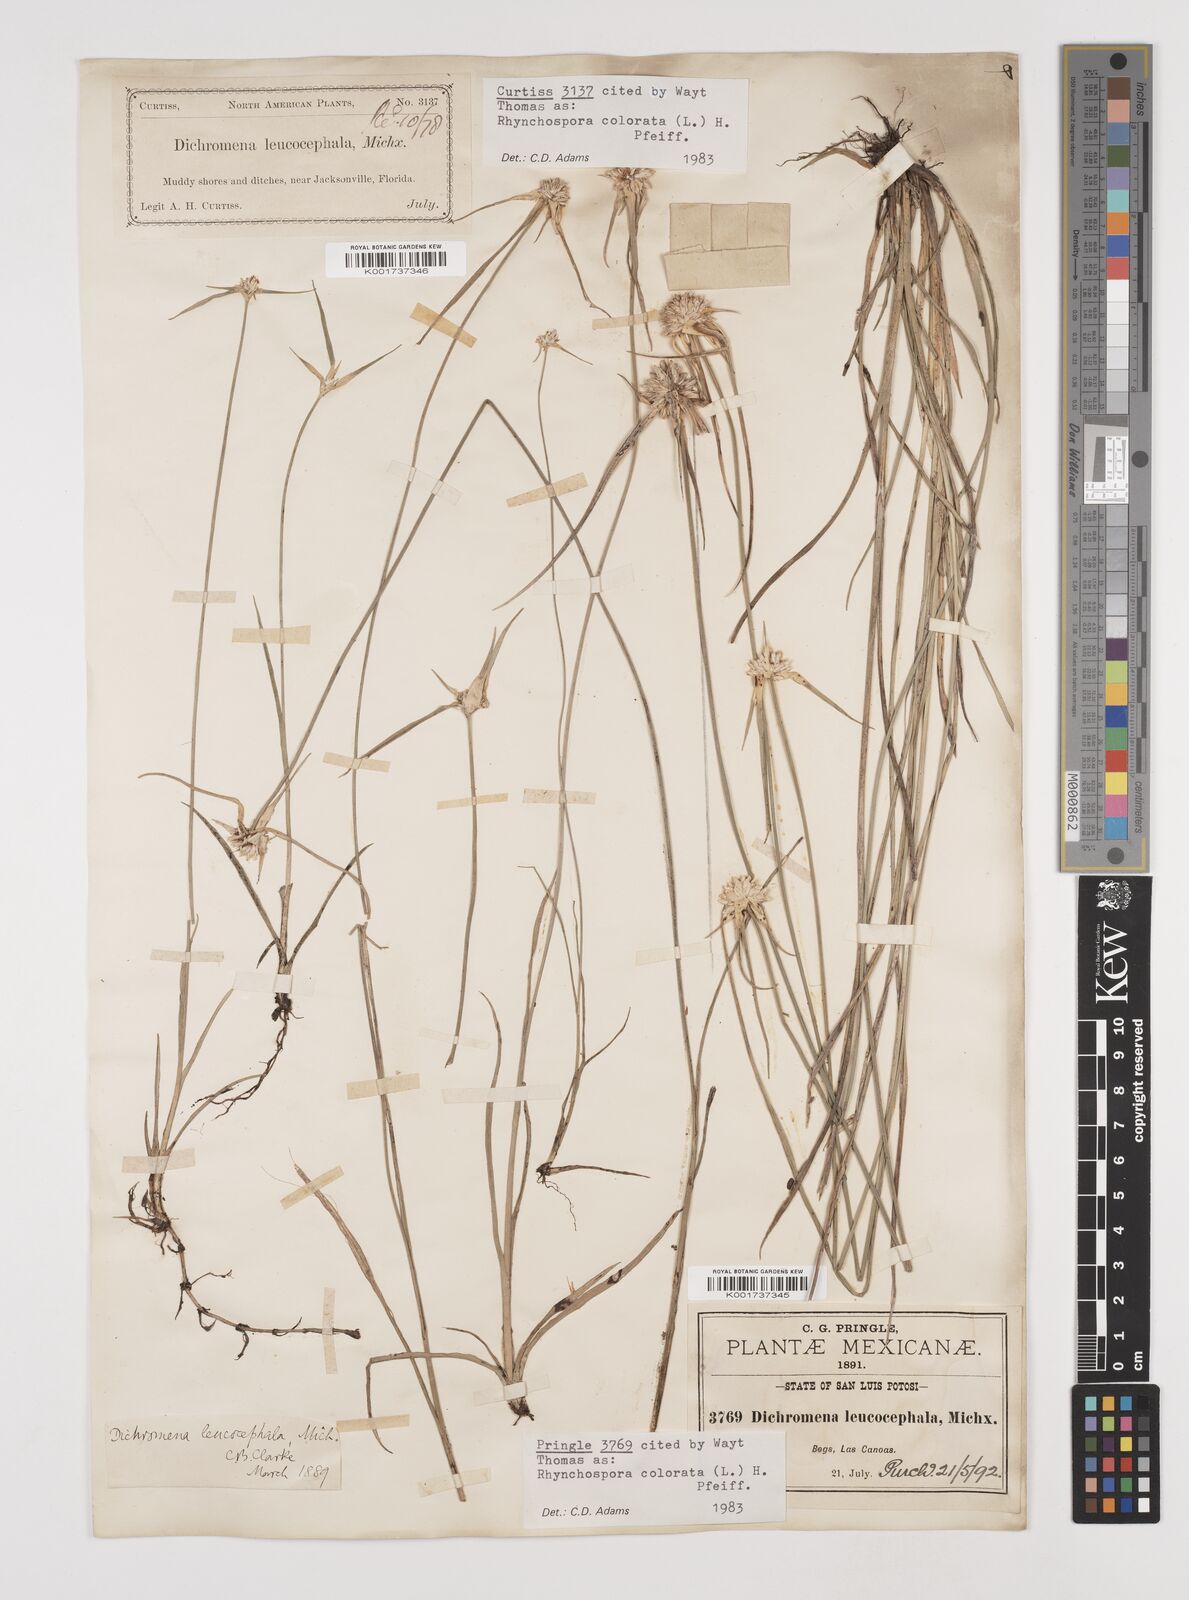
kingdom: Plantae
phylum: Tracheophyta
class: Liliopsida
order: Poales
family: Cyperaceae
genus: Rhynchospora
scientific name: Rhynchospora colorata
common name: Star sedge
